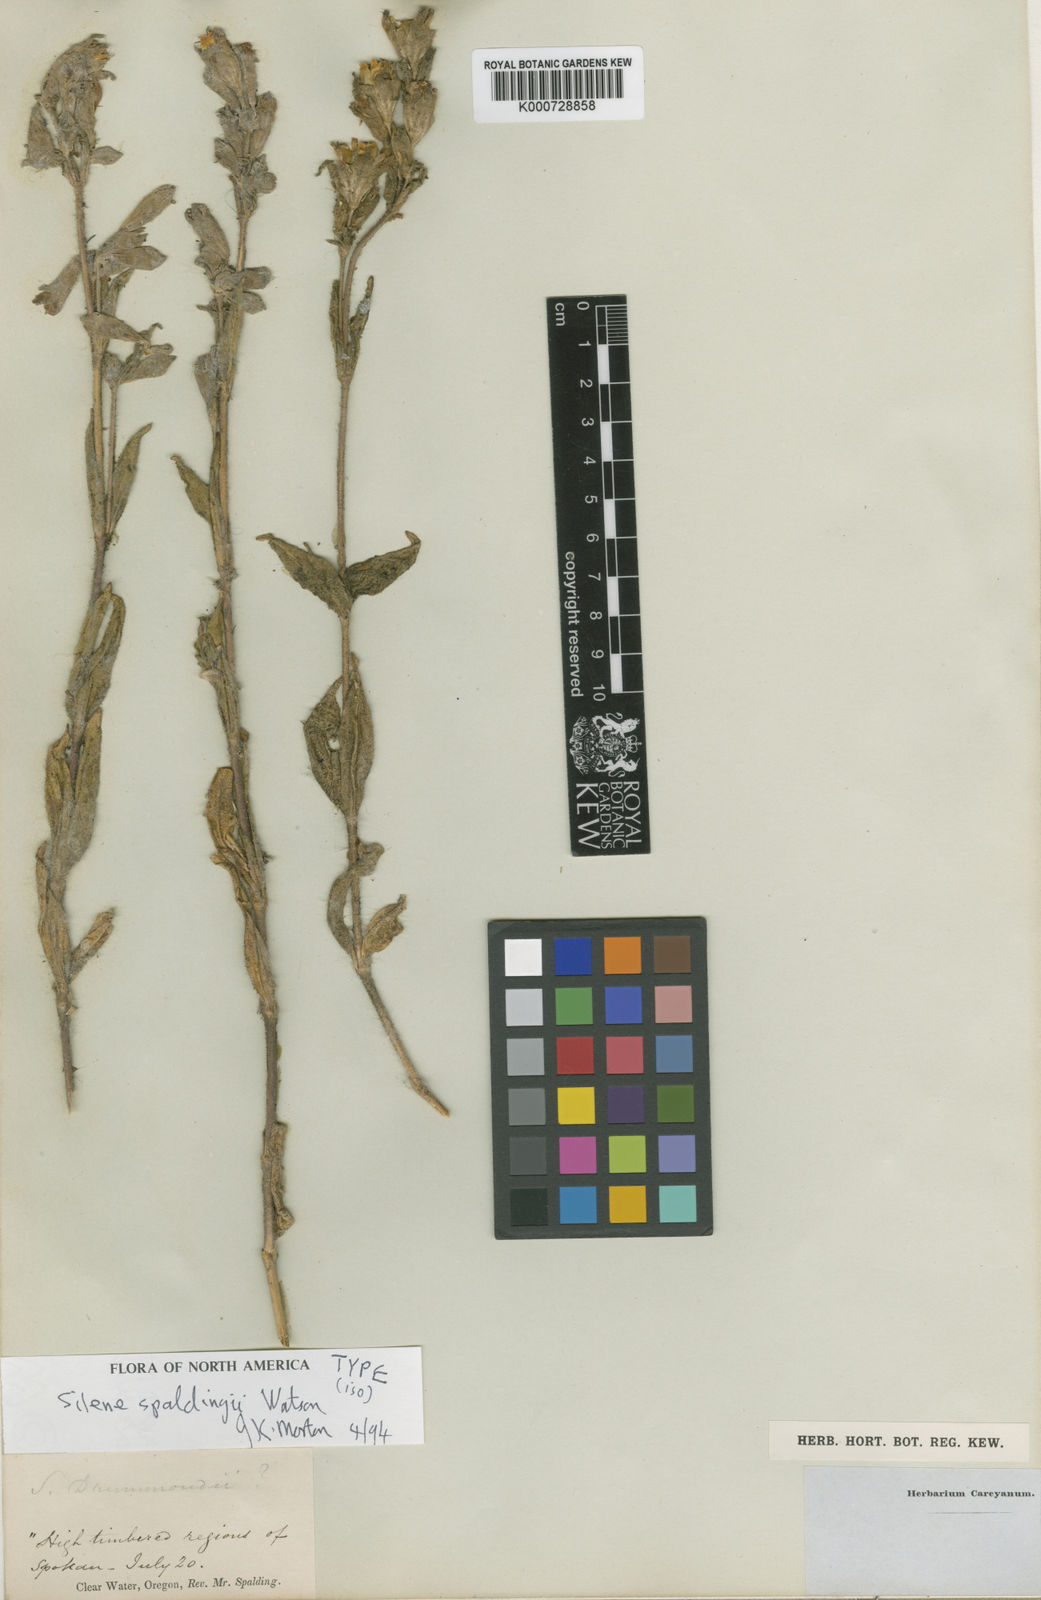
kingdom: Plantae
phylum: Tracheophyta
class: Magnoliopsida
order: Caryophyllales
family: Caryophyllaceae
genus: Silene
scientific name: Silene spaldingii
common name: Spalding's campion
